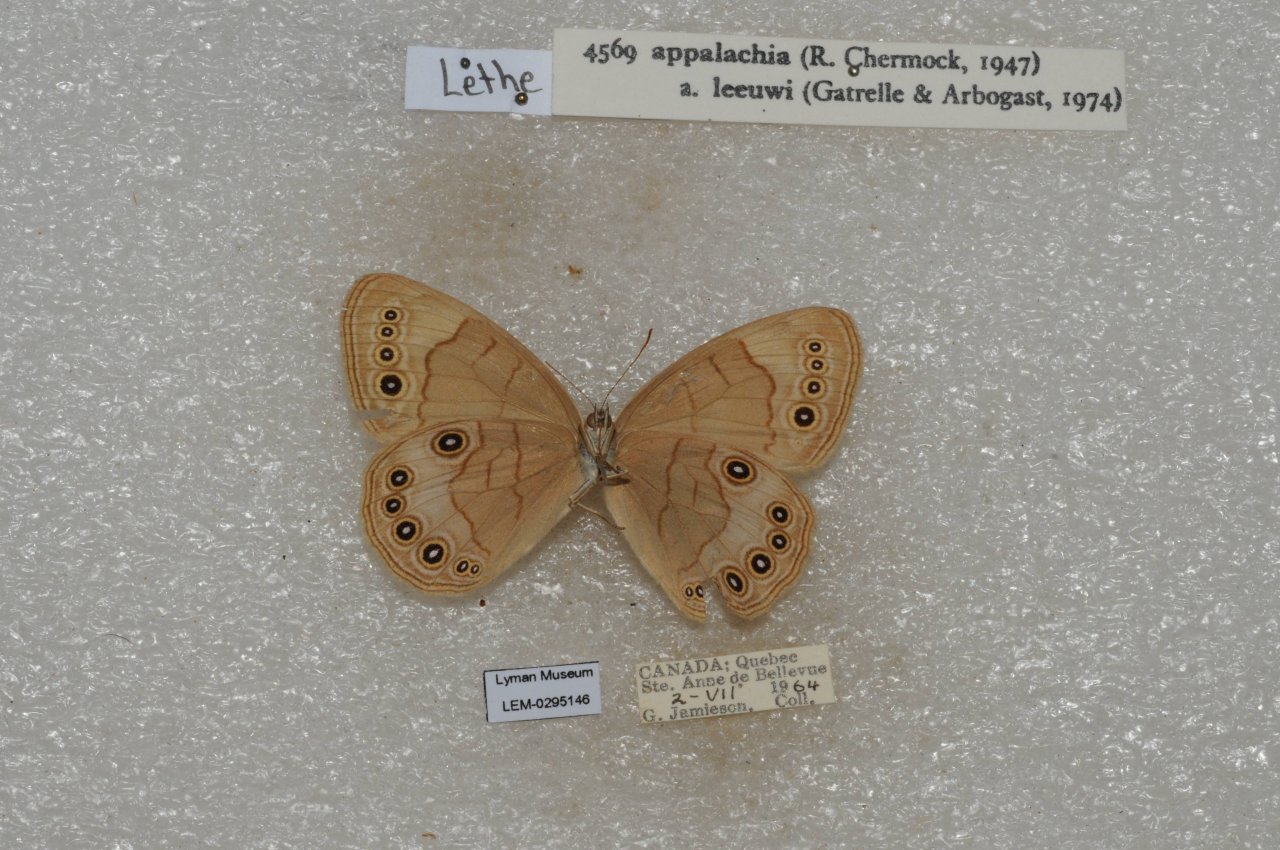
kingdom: Animalia
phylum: Arthropoda
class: Insecta
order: Lepidoptera
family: Nymphalidae
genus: Lethe
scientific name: Lethe eurydice
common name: Appalachian Eyed Brown
